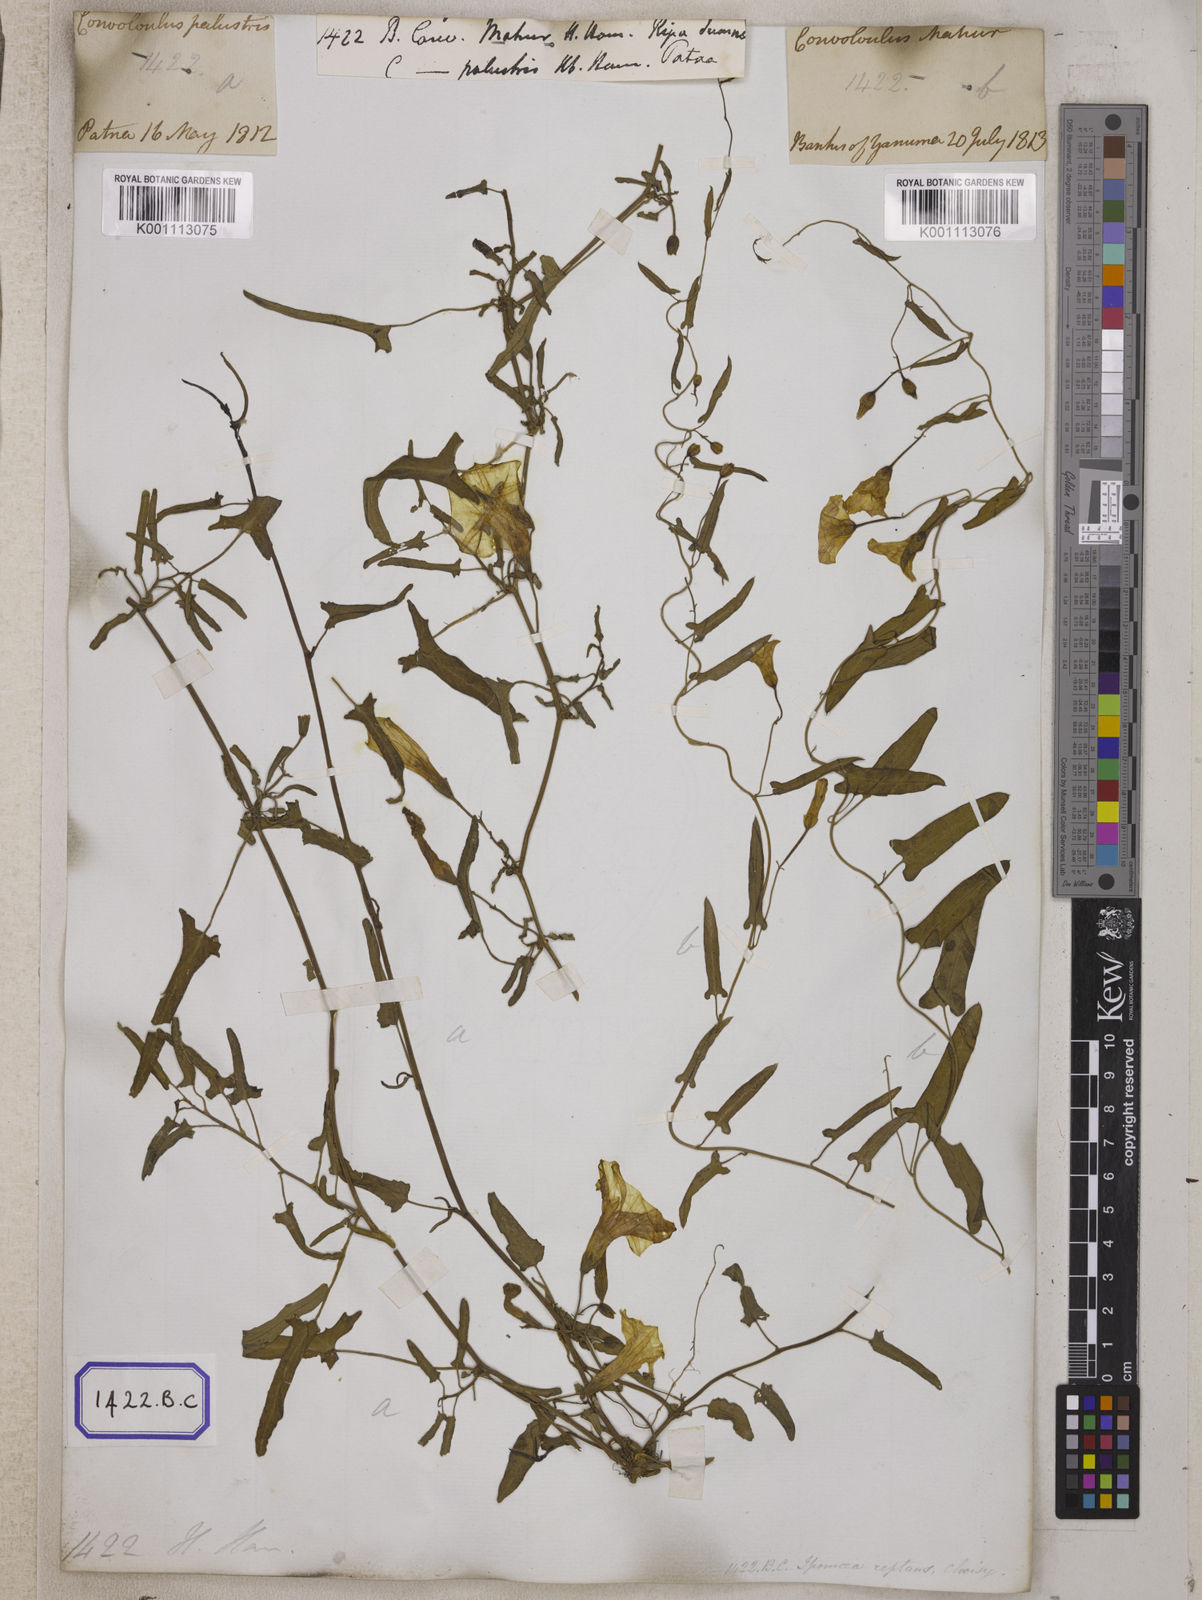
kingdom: Plantae
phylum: Tracheophyta
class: Magnoliopsida
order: Solanales
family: Convolvulaceae
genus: Convolvulus
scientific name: Convolvulus
